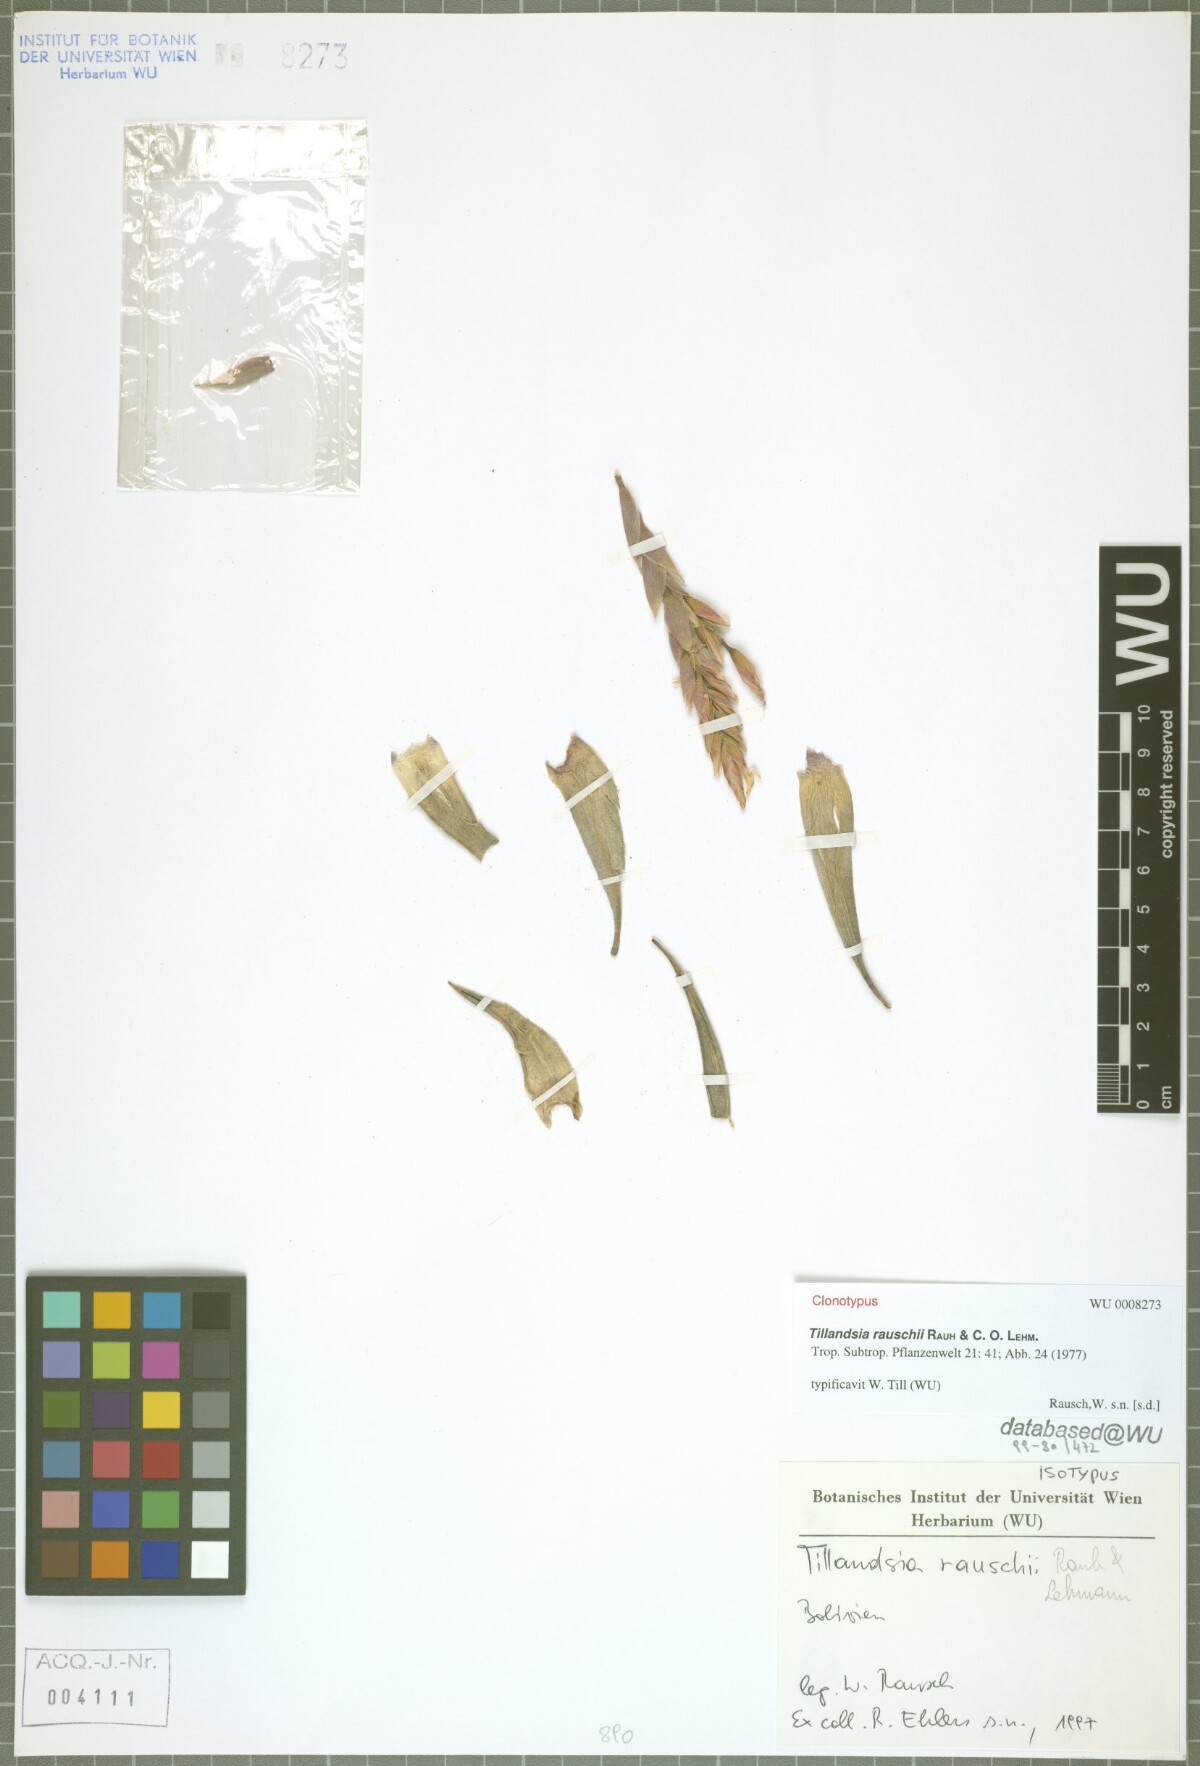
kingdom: Plantae
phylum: Tracheophyta
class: Liliopsida
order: Poales
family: Bromeliaceae
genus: Tillandsia
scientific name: Tillandsia rauschii
